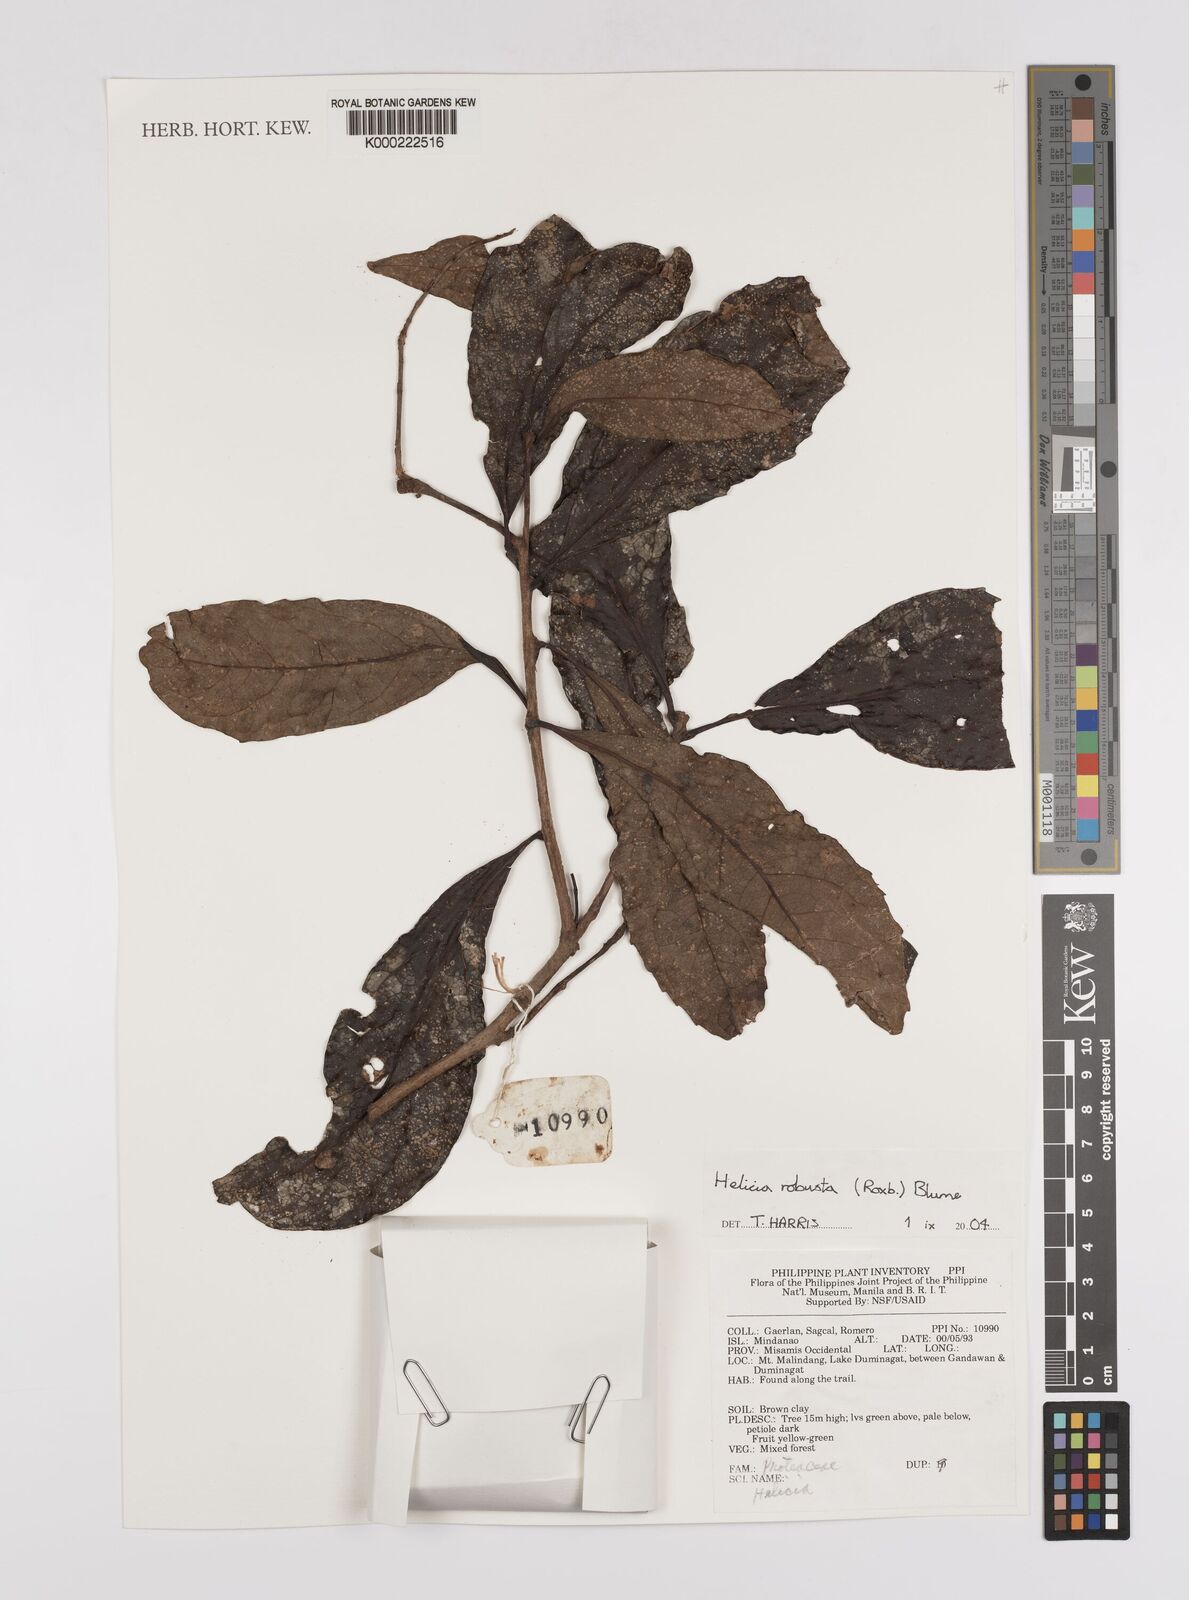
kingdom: Plantae
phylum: Tracheophyta
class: Magnoliopsida
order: Proteales
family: Proteaceae
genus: Helicia
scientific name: Helicia robusta
